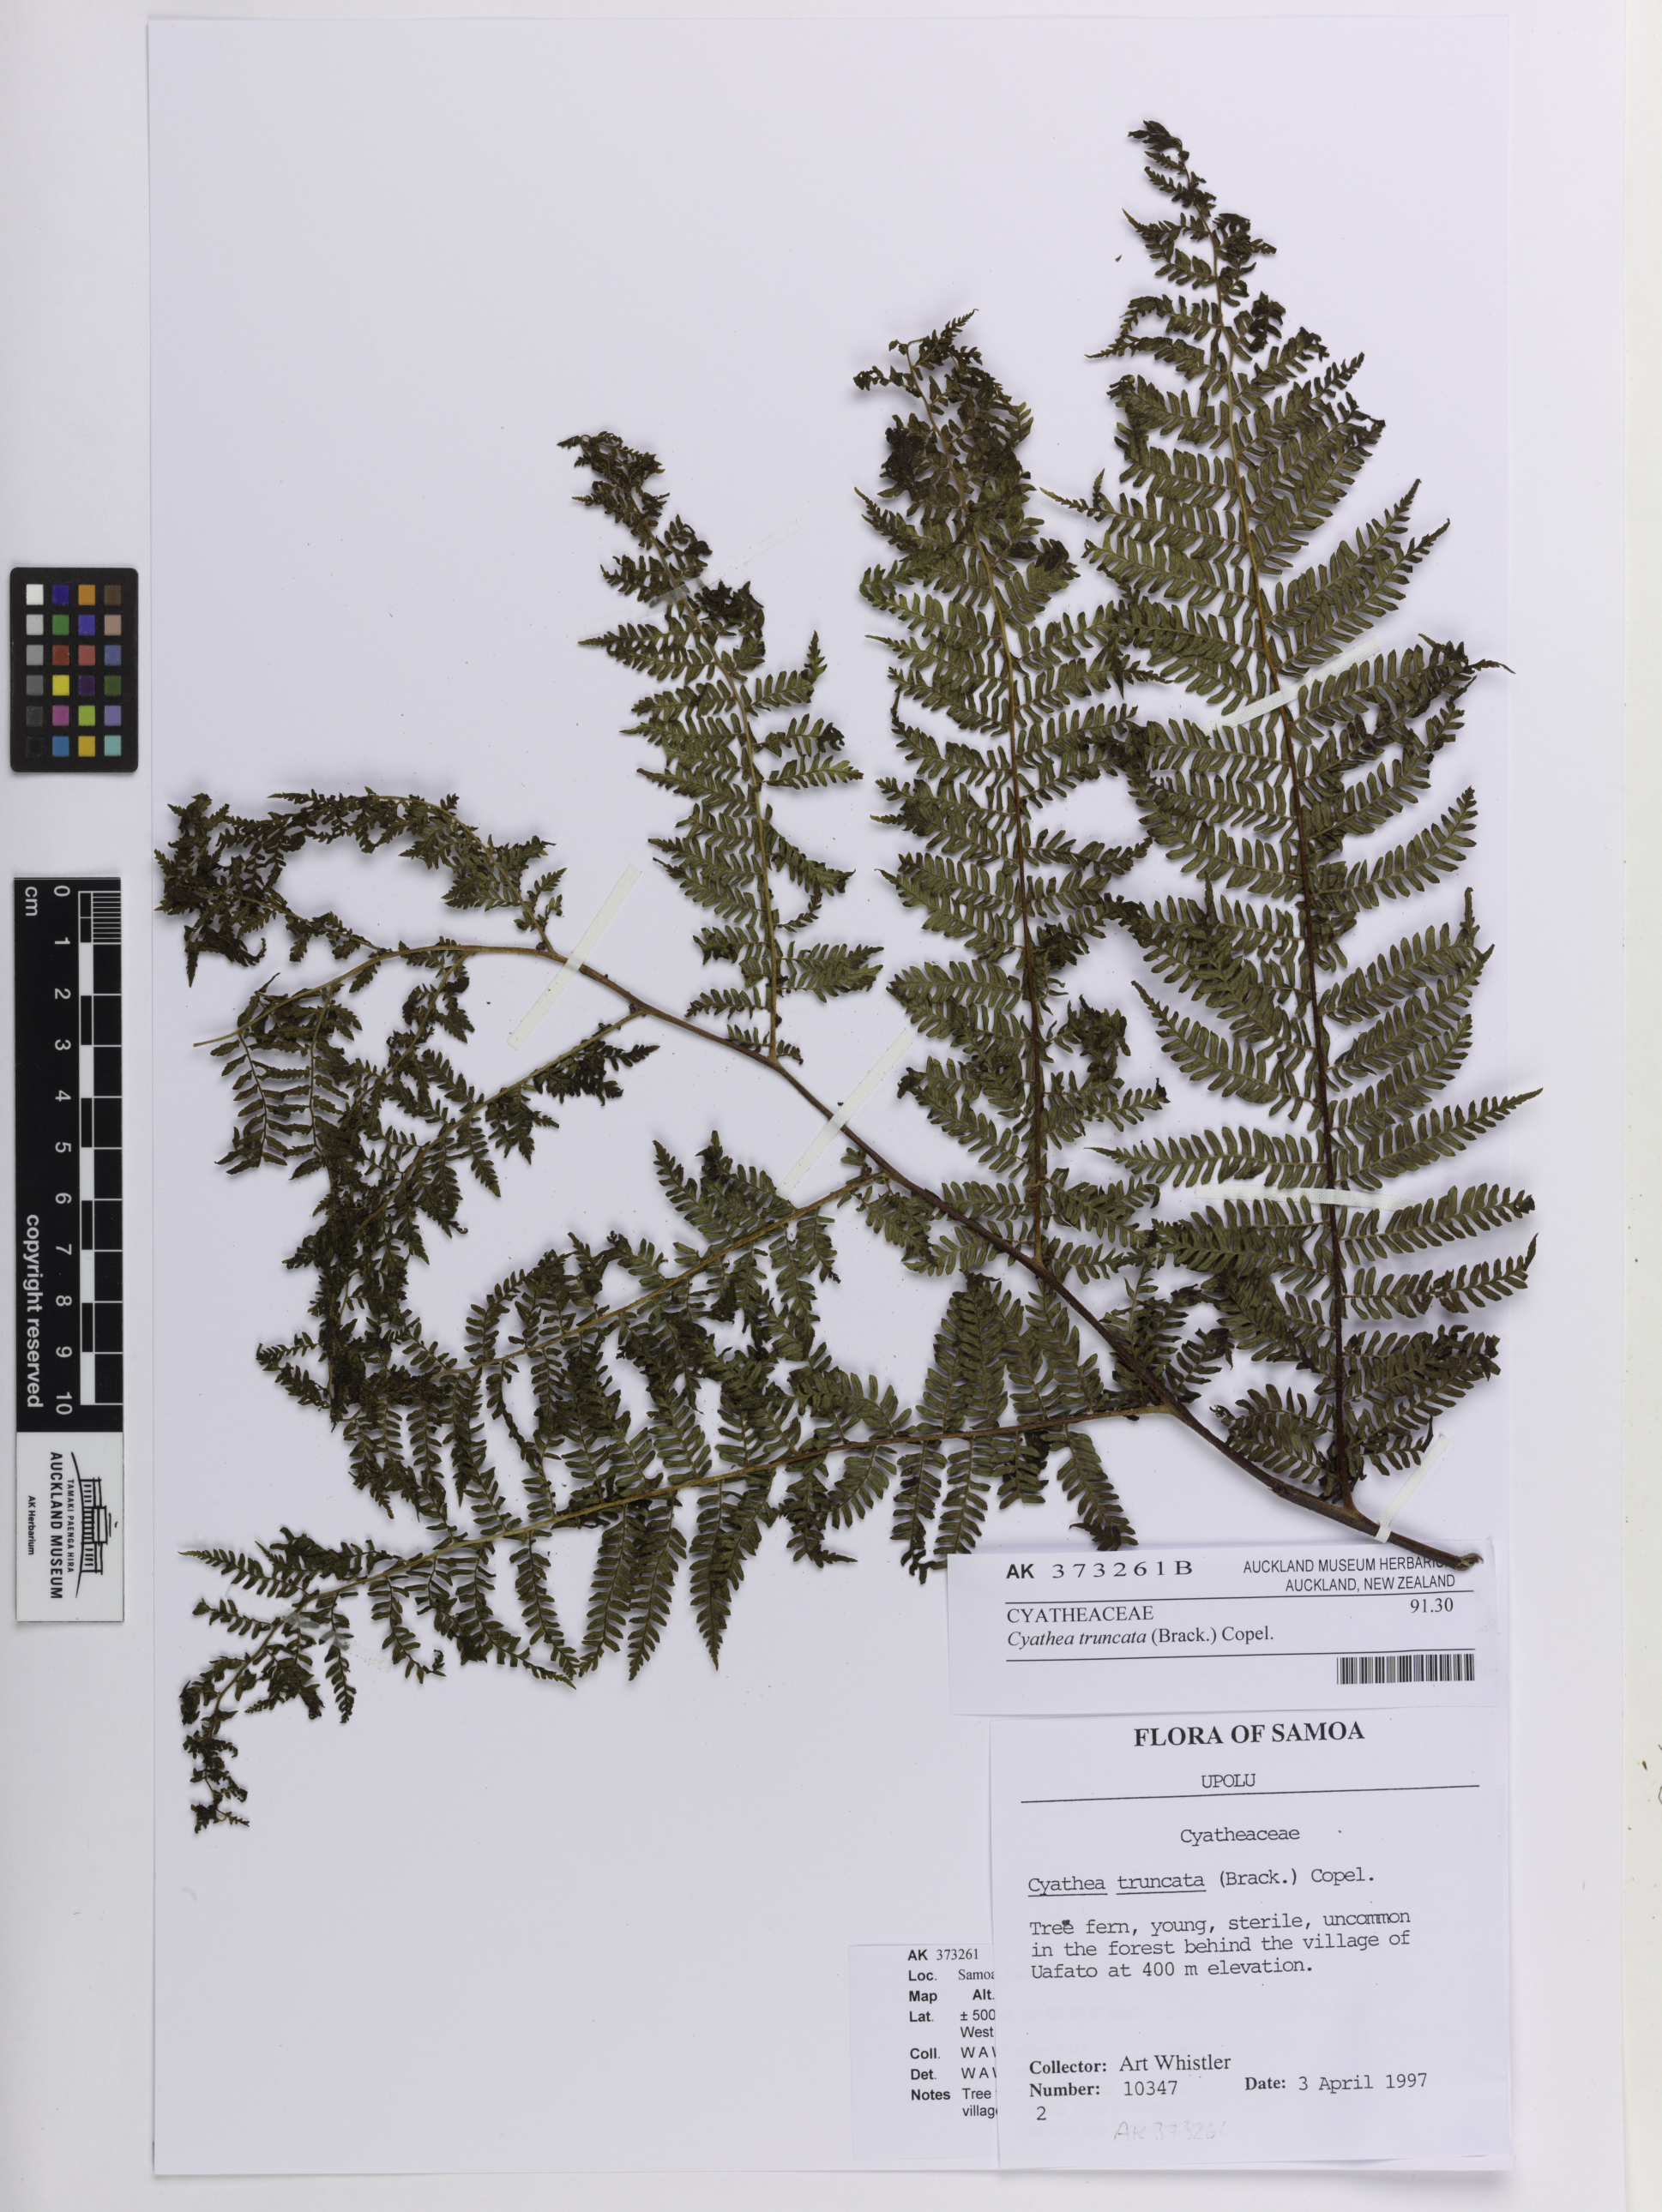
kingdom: Plantae
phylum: Tracheophyta
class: Polypodiopsida
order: Cyatheales
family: Cyatheaceae
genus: Sphaeropteris
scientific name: Sphaeropteris truncata
